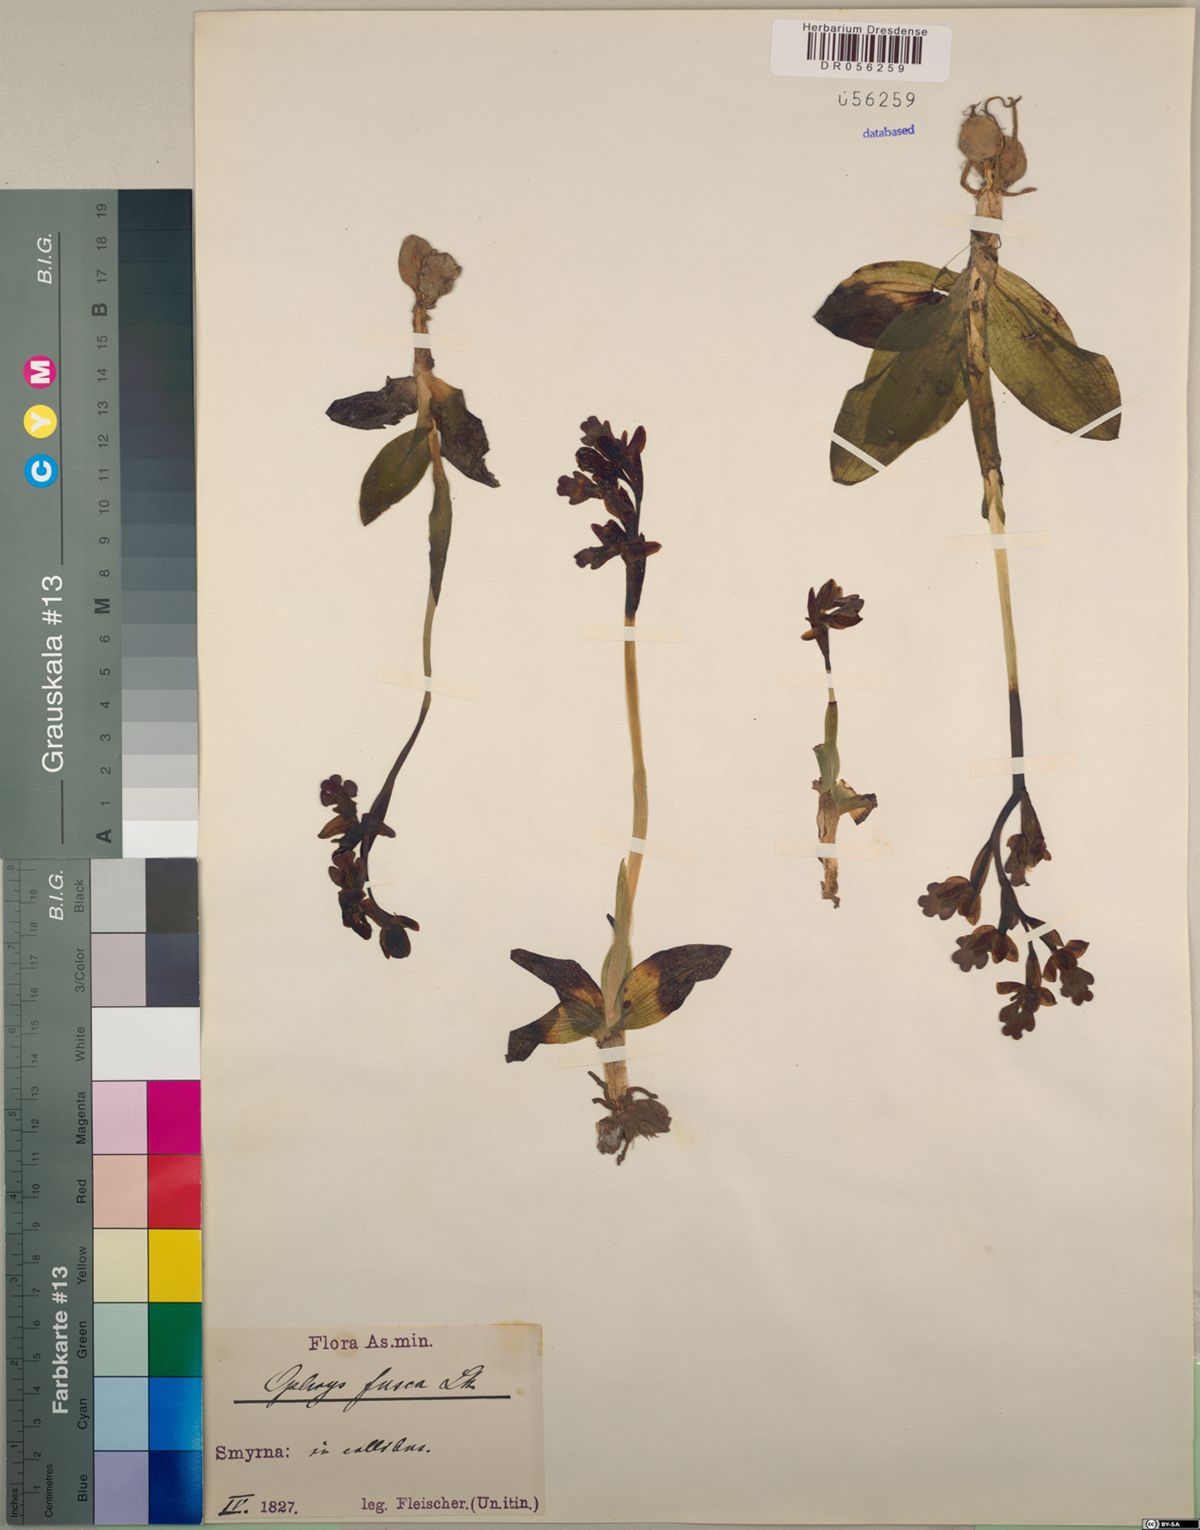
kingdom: Plantae
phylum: Tracheophyta
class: Liliopsida
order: Asparagales
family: Orchidaceae
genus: Ophrys
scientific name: Ophrys fusca
